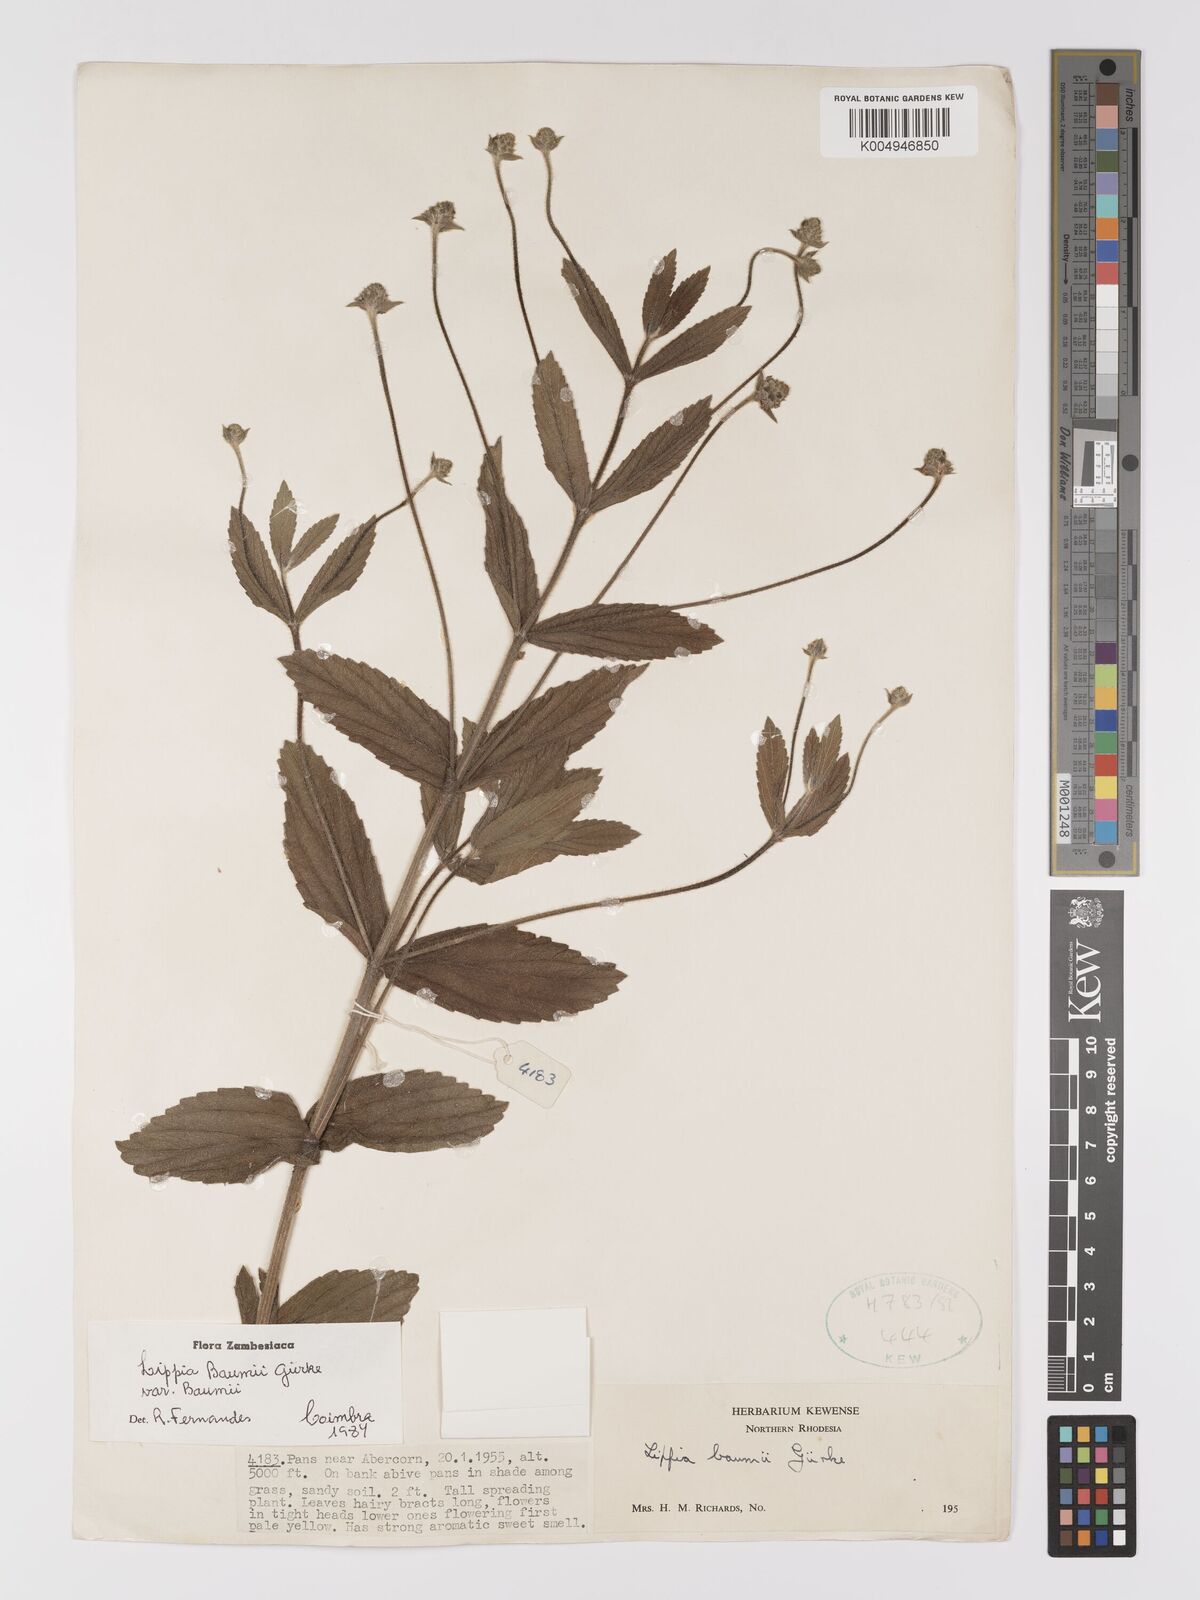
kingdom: Plantae
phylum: Tracheophyta
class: Magnoliopsida
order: Lamiales
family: Verbenaceae
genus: Lippia
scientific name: Lippia baumii
